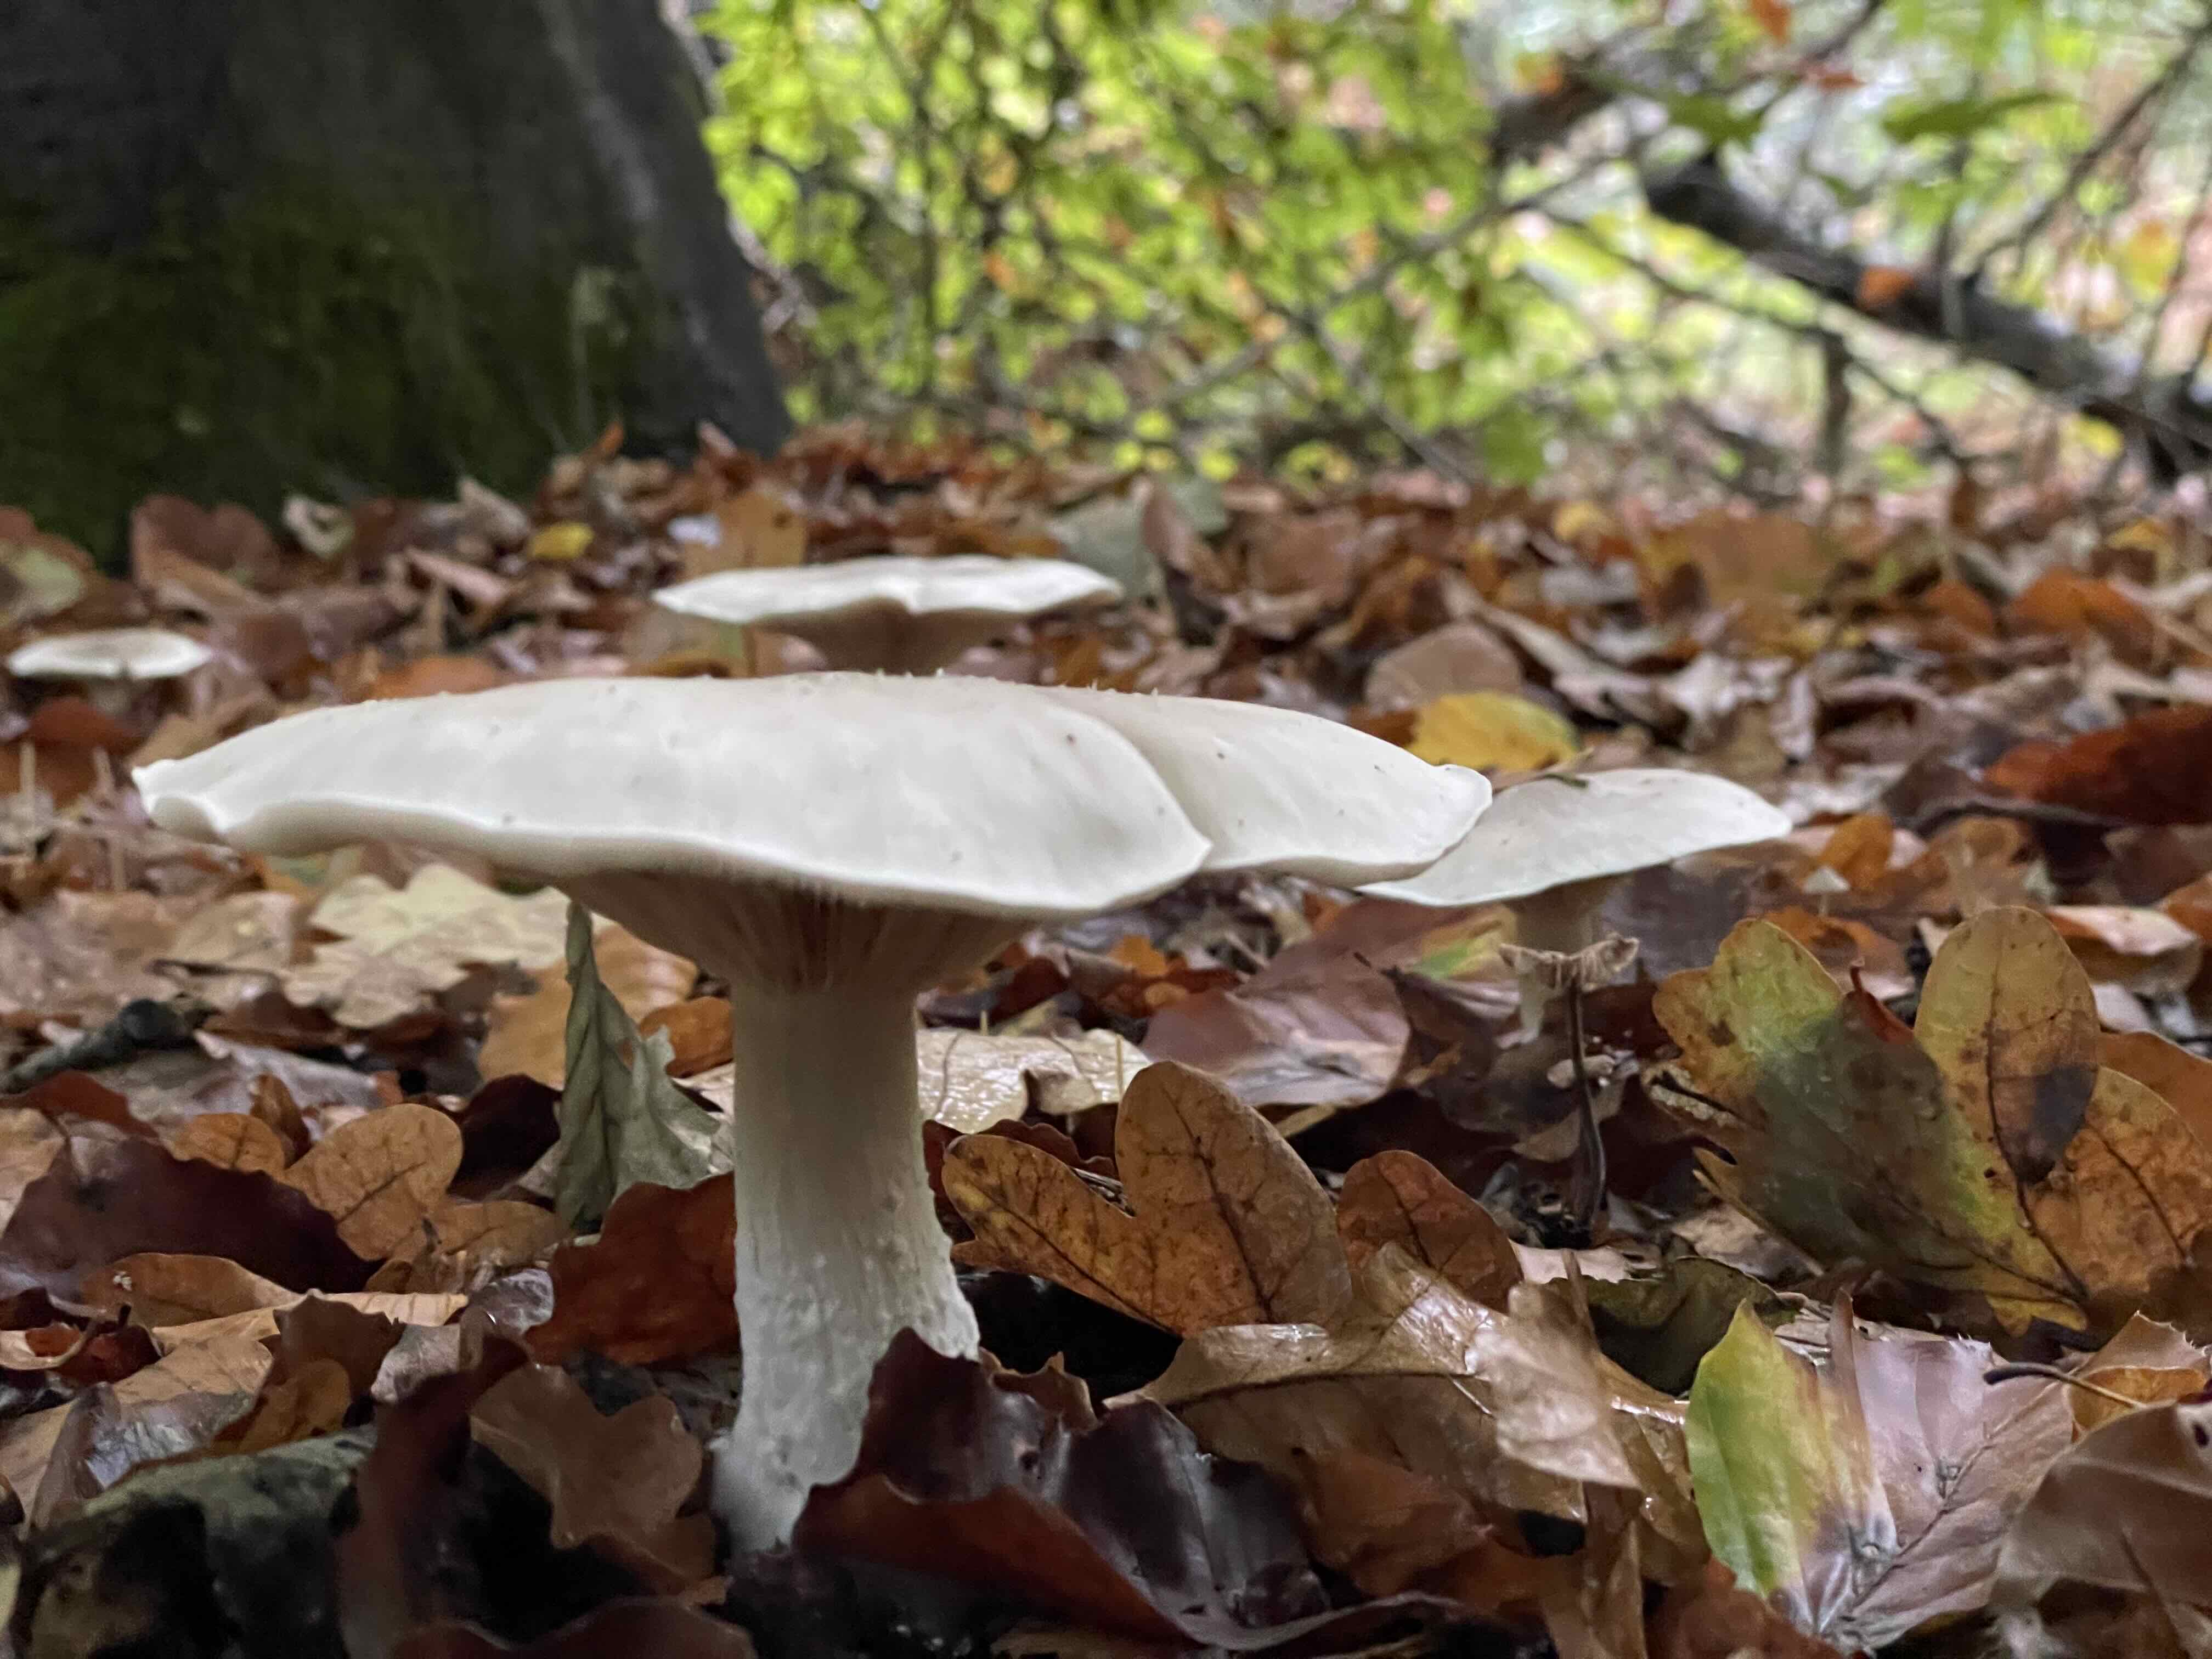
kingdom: Fungi
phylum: Basidiomycota
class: Agaricomycetes
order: Agaricales
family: Tricholomataceae
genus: Clitocybe
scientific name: Clitocybe nebularis
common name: tåge-tragthat
